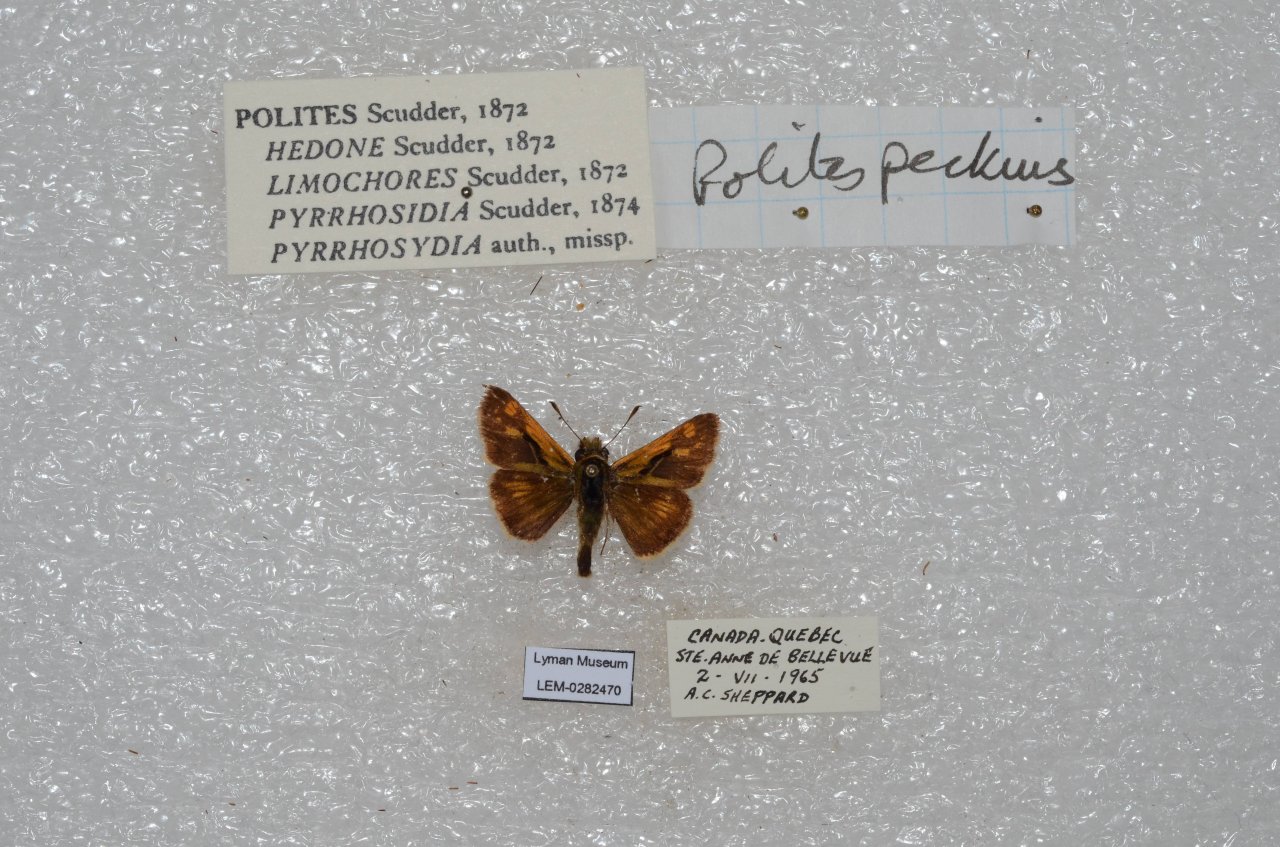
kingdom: Animalia
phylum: Arthropoda
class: Insecta
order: Lepidoptera
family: Hesperiidae
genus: Polites
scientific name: Polites coras
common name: Peck's Skipper
